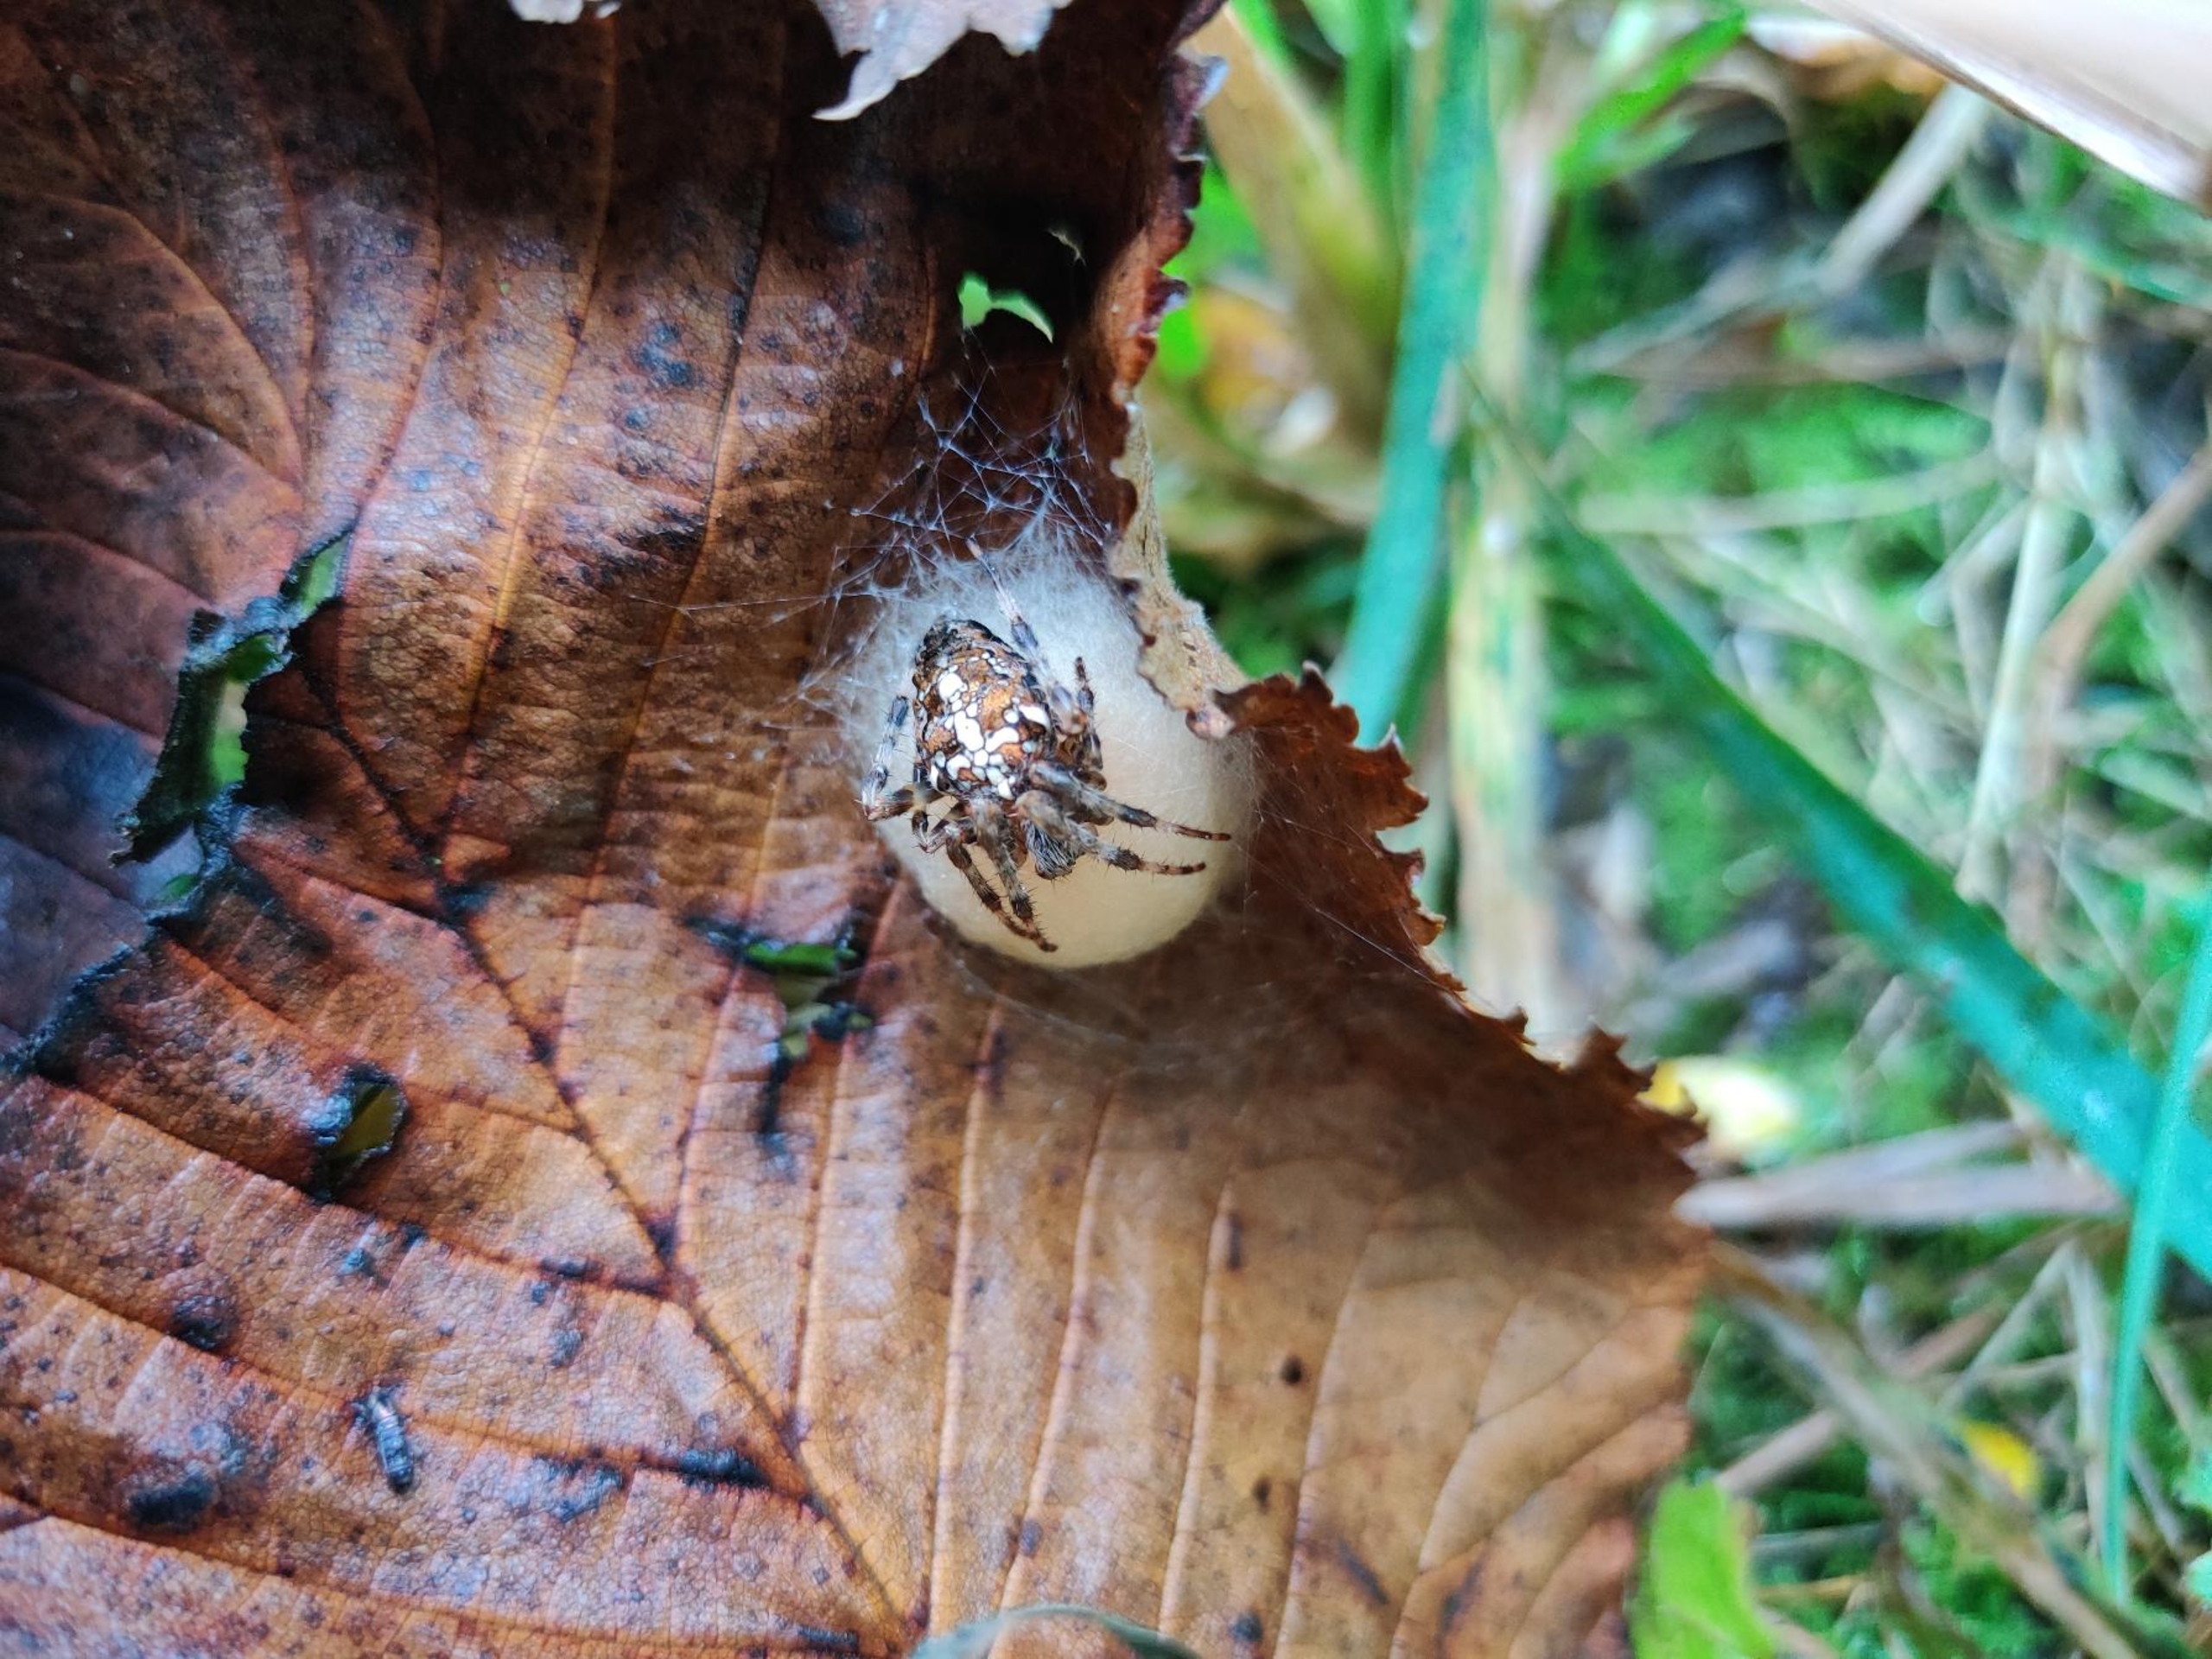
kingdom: Animalia
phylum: Arthropoda
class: Arachnida
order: Araneae
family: Araneidae
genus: Araneus
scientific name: Araneus diadematus
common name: Korsedderkop
